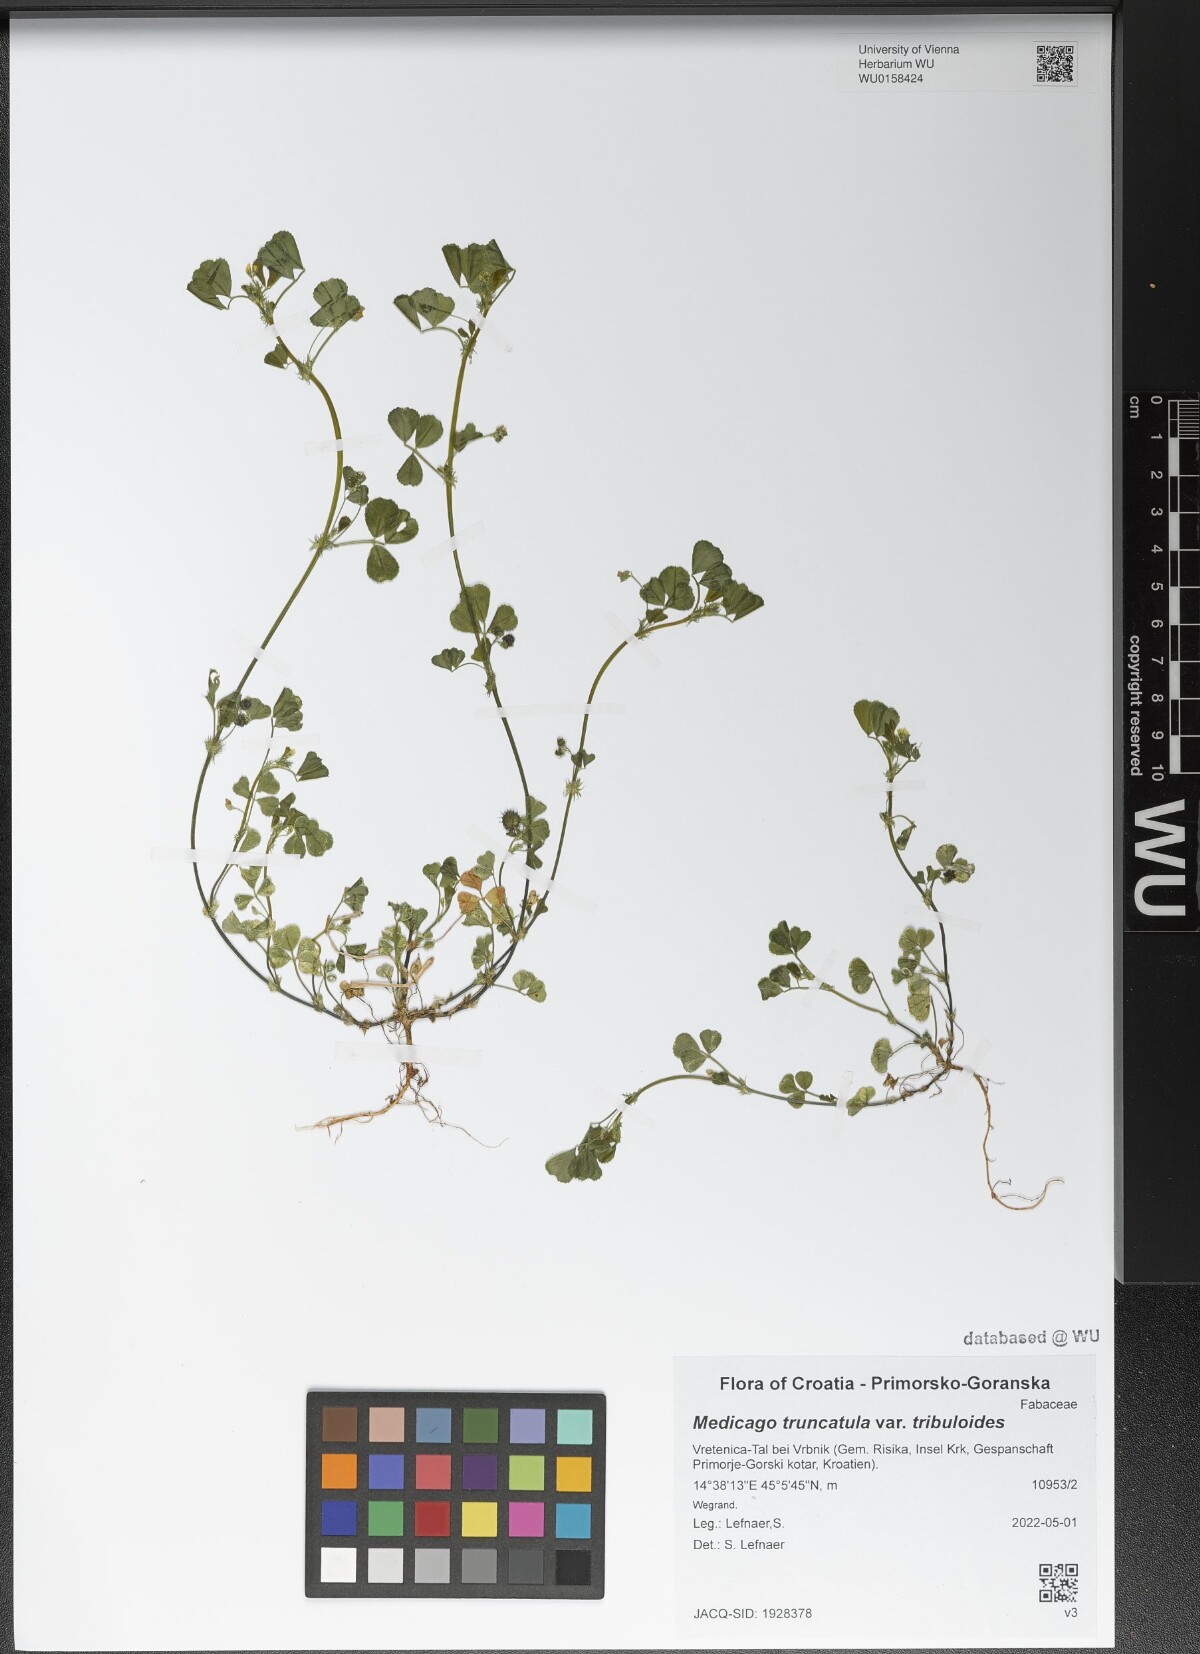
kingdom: Plantae
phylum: Tracheophyta
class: Magnoliopsida
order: Fabales
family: Fabaceae
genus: Medicago
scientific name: Medicago truncatula
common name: Strong-spined medick
